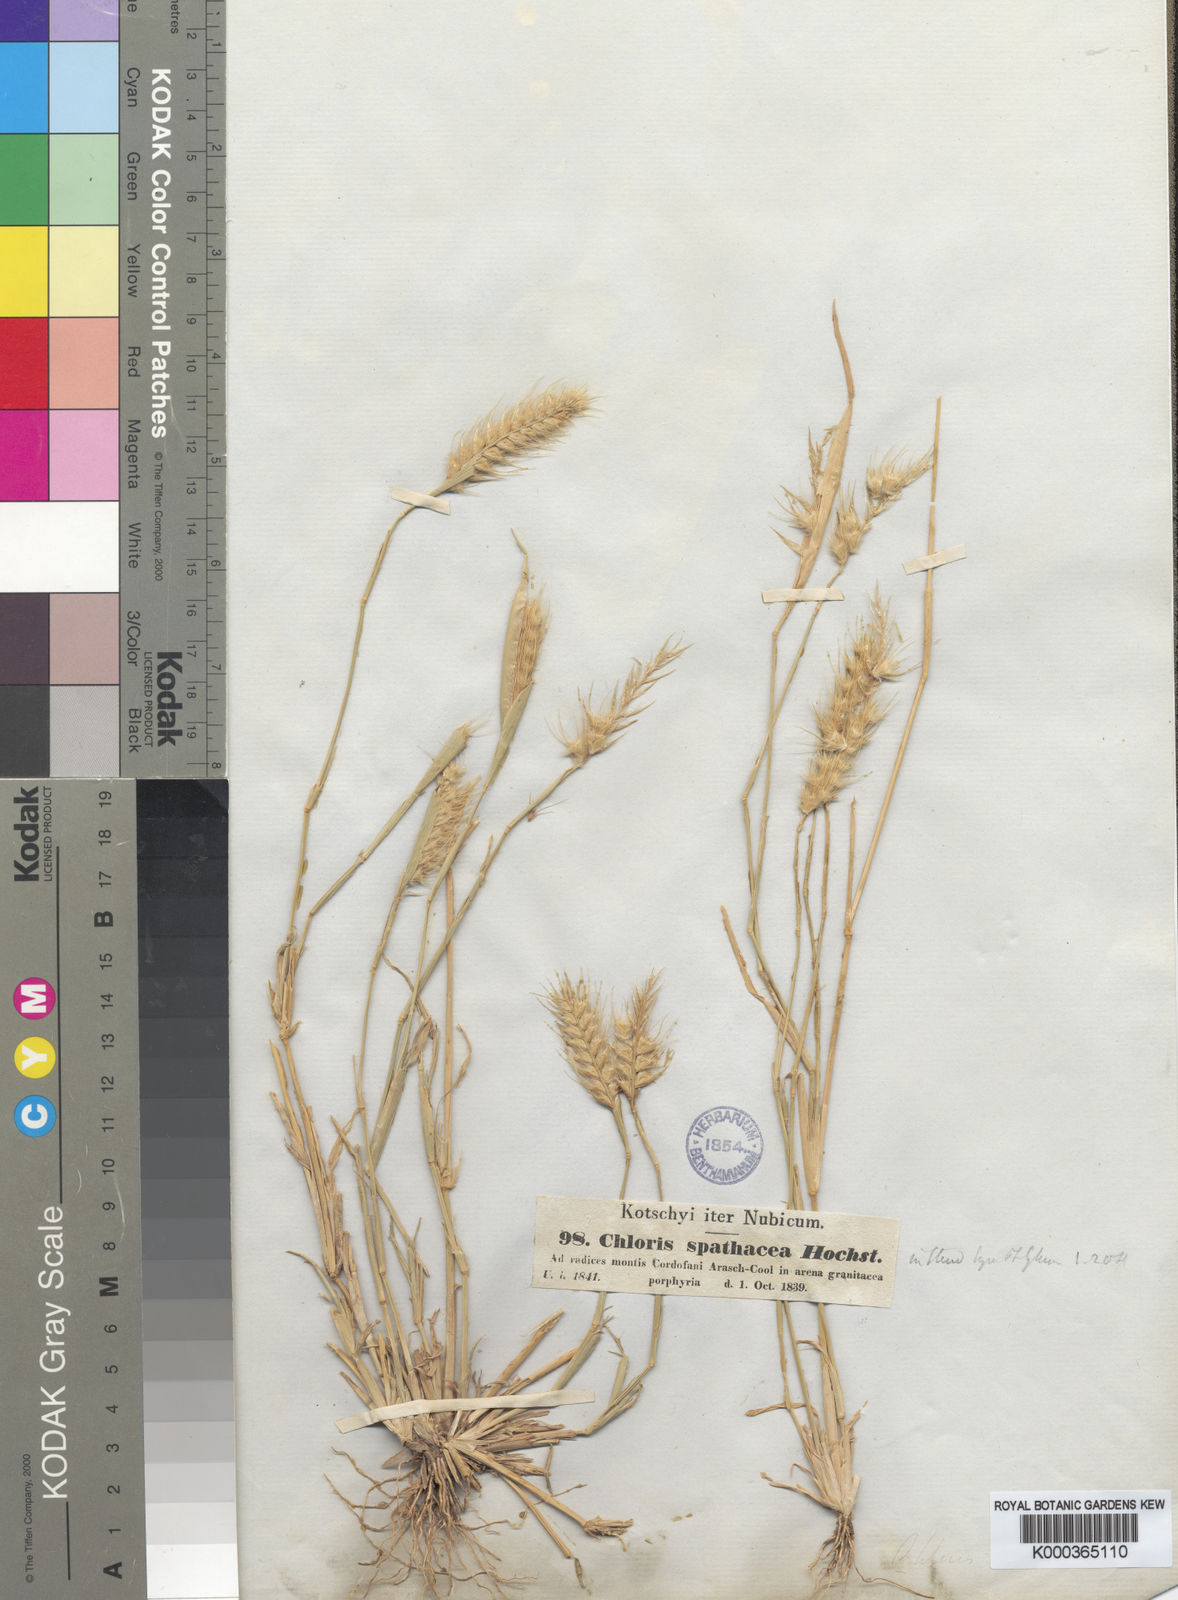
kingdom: Plantae
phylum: Tracheophyta
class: Liliopsida
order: Poales
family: Poaceae
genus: Tetrapogon
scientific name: Tetrapogon cenchriformis
